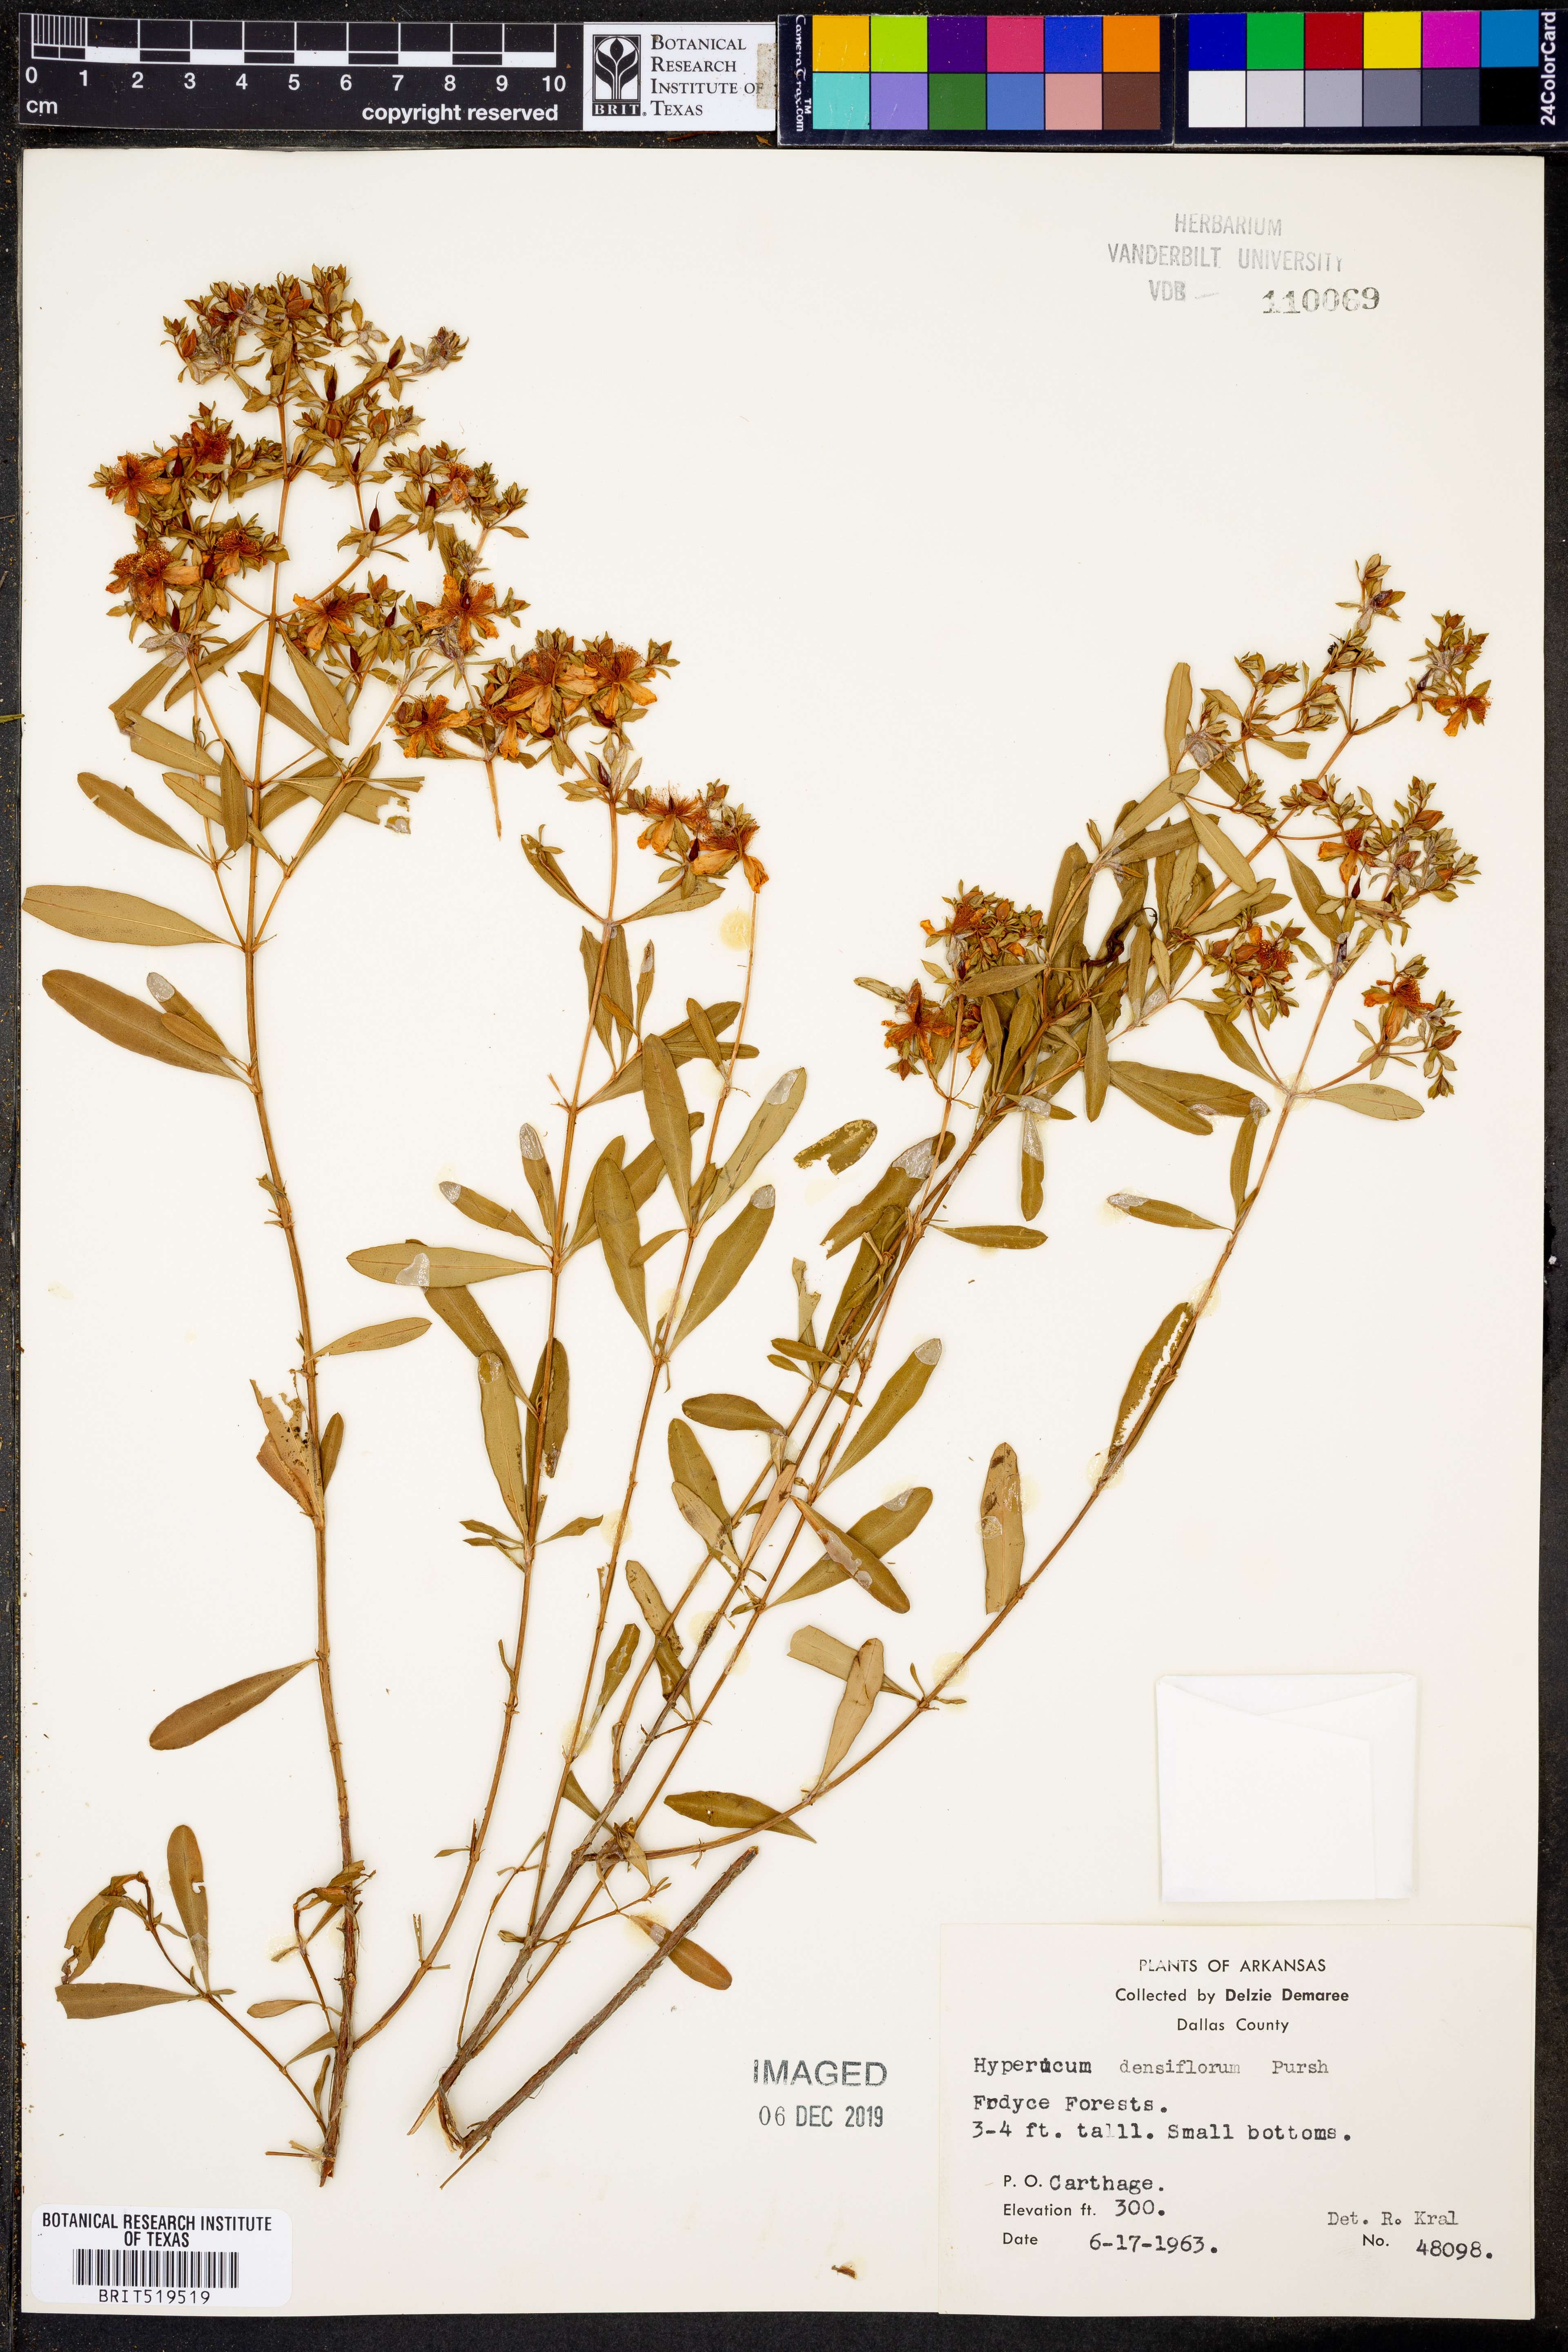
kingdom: Plantae
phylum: Tracheophyta
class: Magnoliopsida
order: Malpighiales
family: Hypericaceae
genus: Hypericum
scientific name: Hypericum densiflorum
